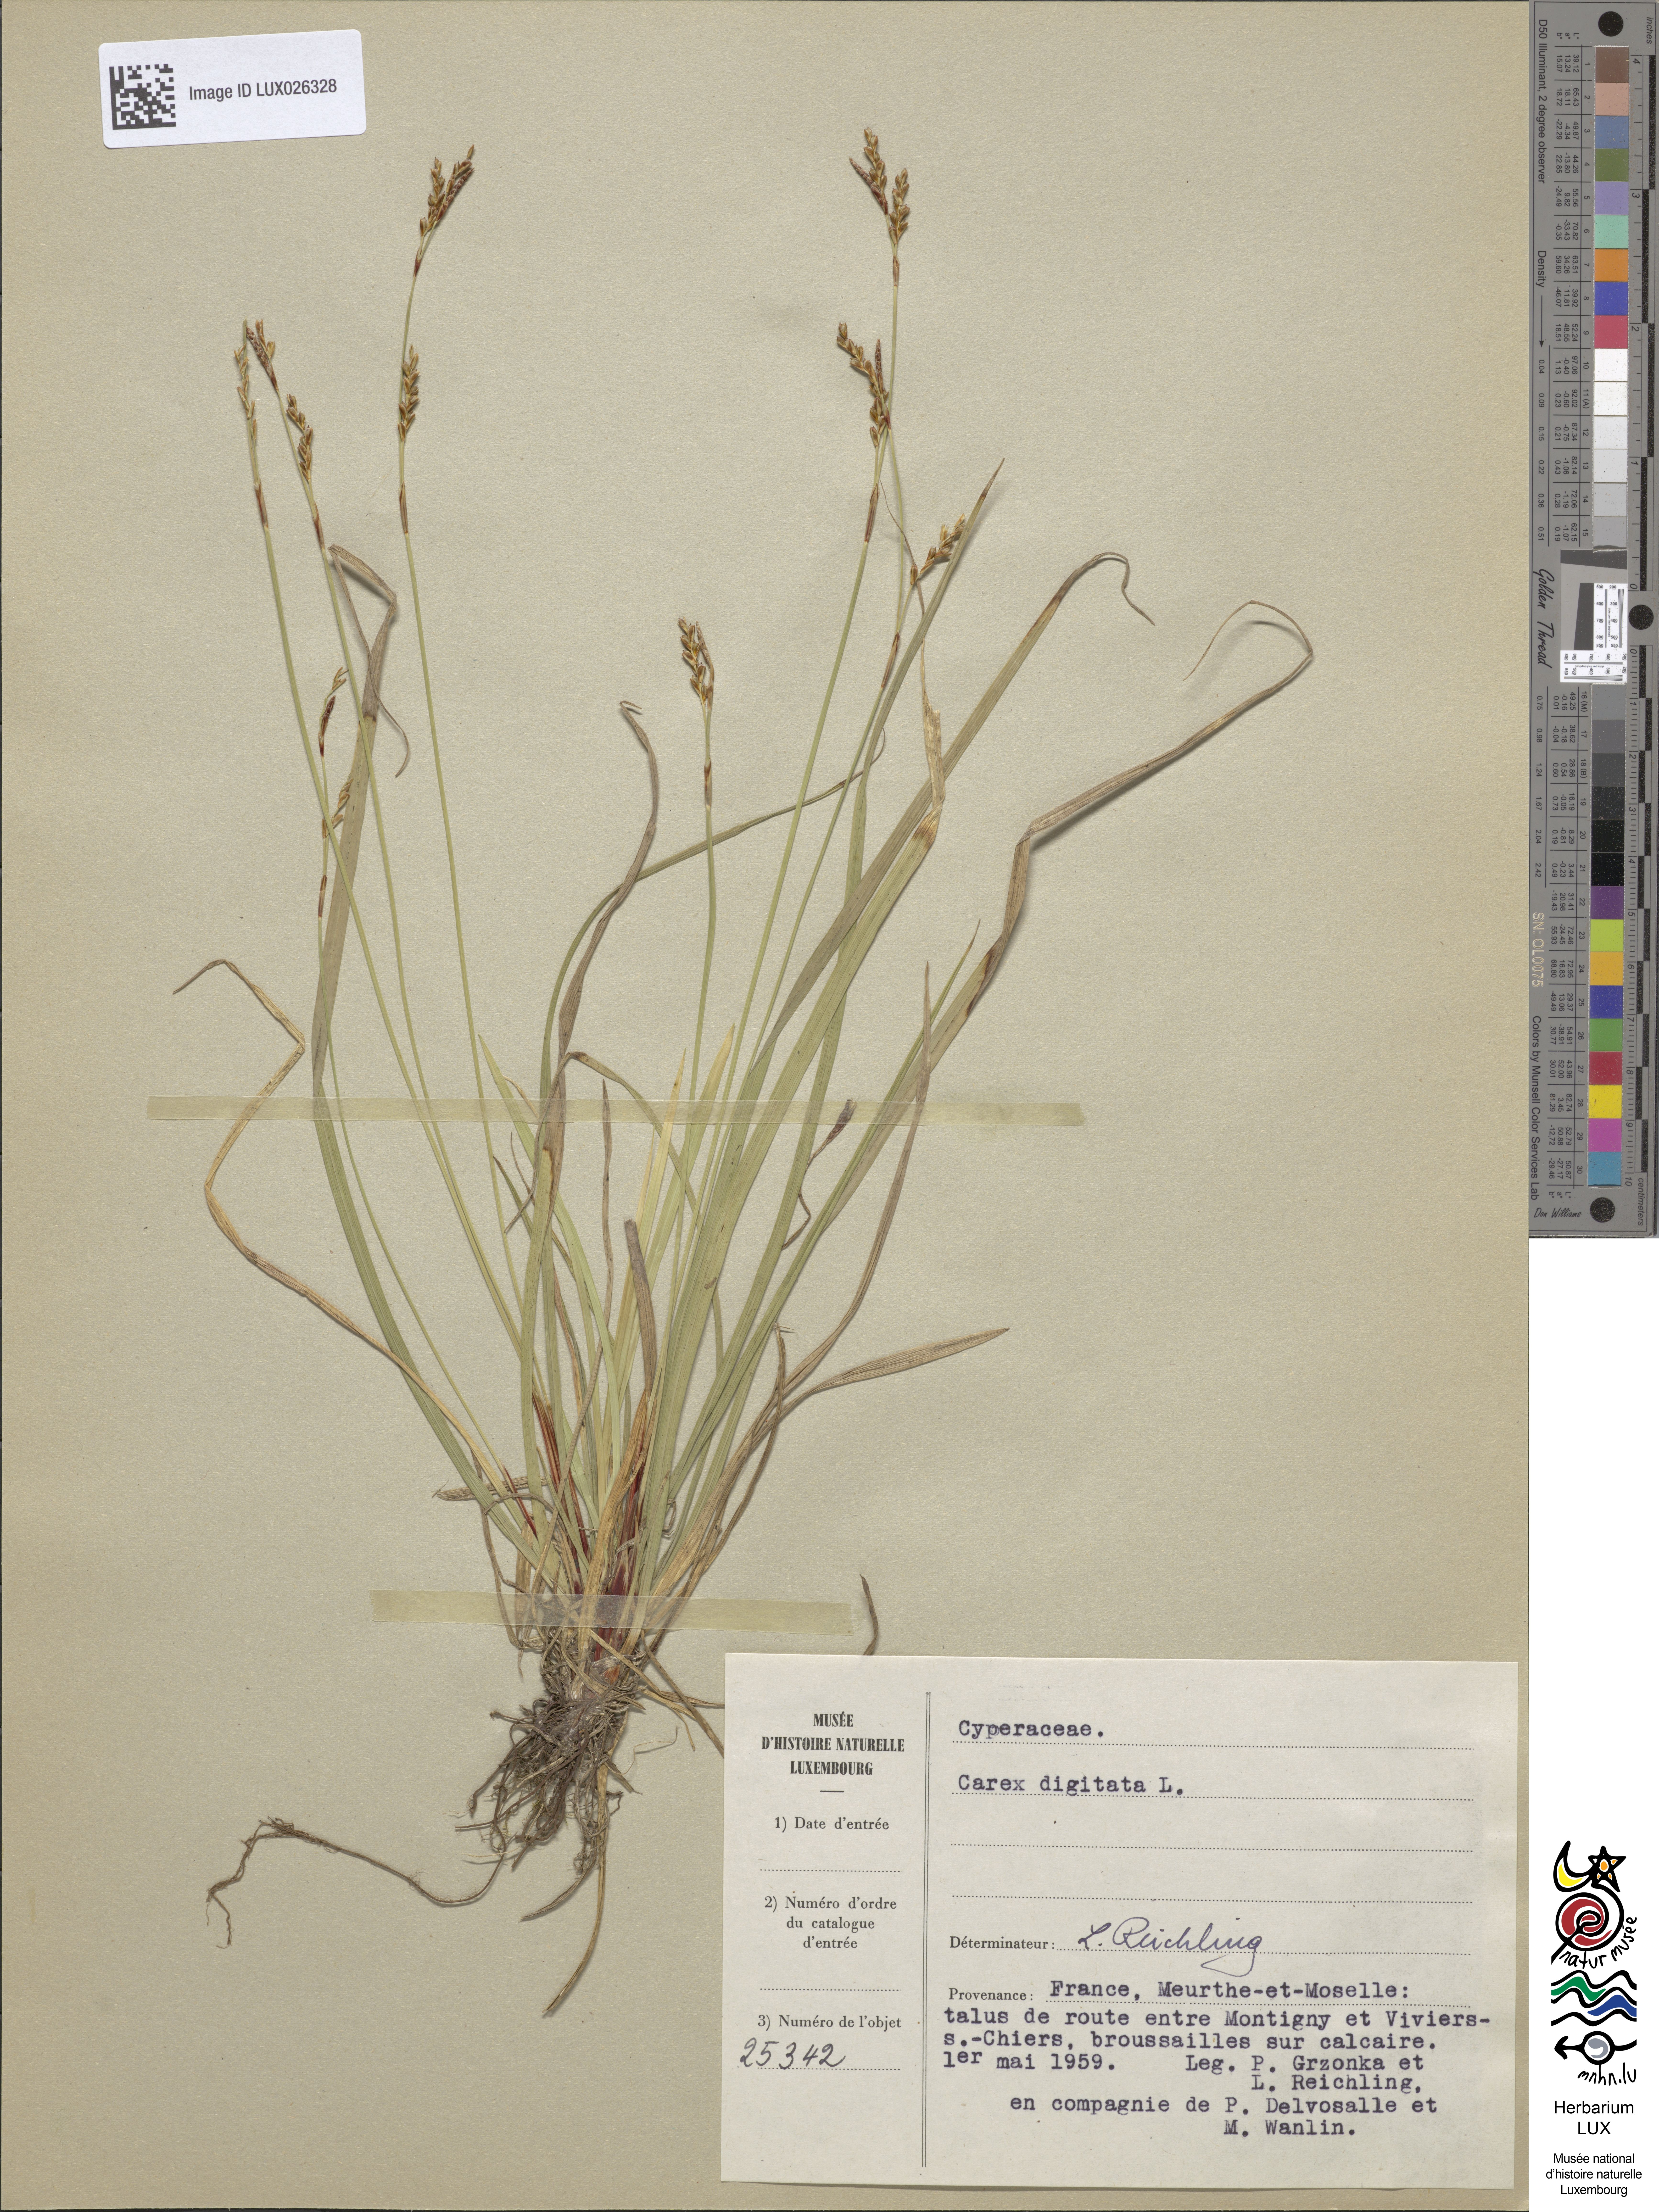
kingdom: Plantae
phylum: Tracheophyta
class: Liliopsida
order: Poales
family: Cyperaceae
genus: Carex
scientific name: Carex digitata
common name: Fingered sedge
